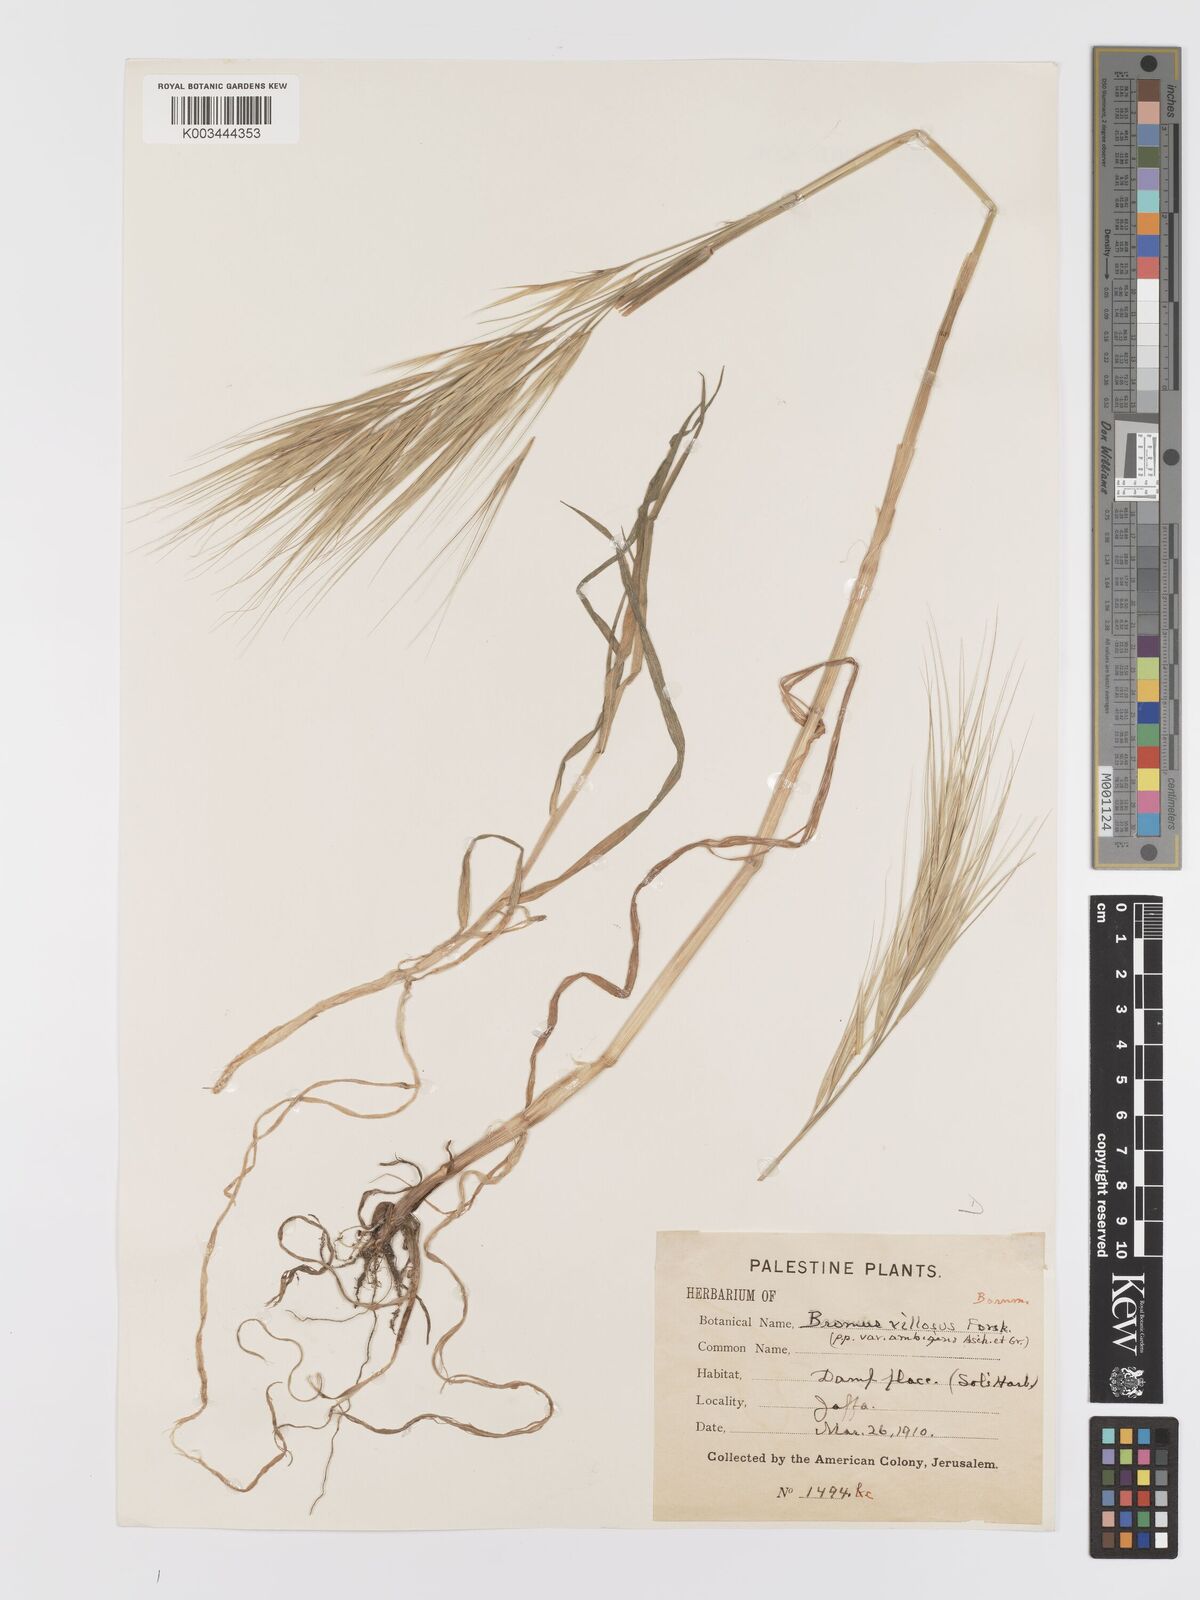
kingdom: Plantae
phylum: Tracheophyta
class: Liliopsida
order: Poales
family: Poaceae
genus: Bromus
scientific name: Bromus diandrus
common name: Ripgut brome
